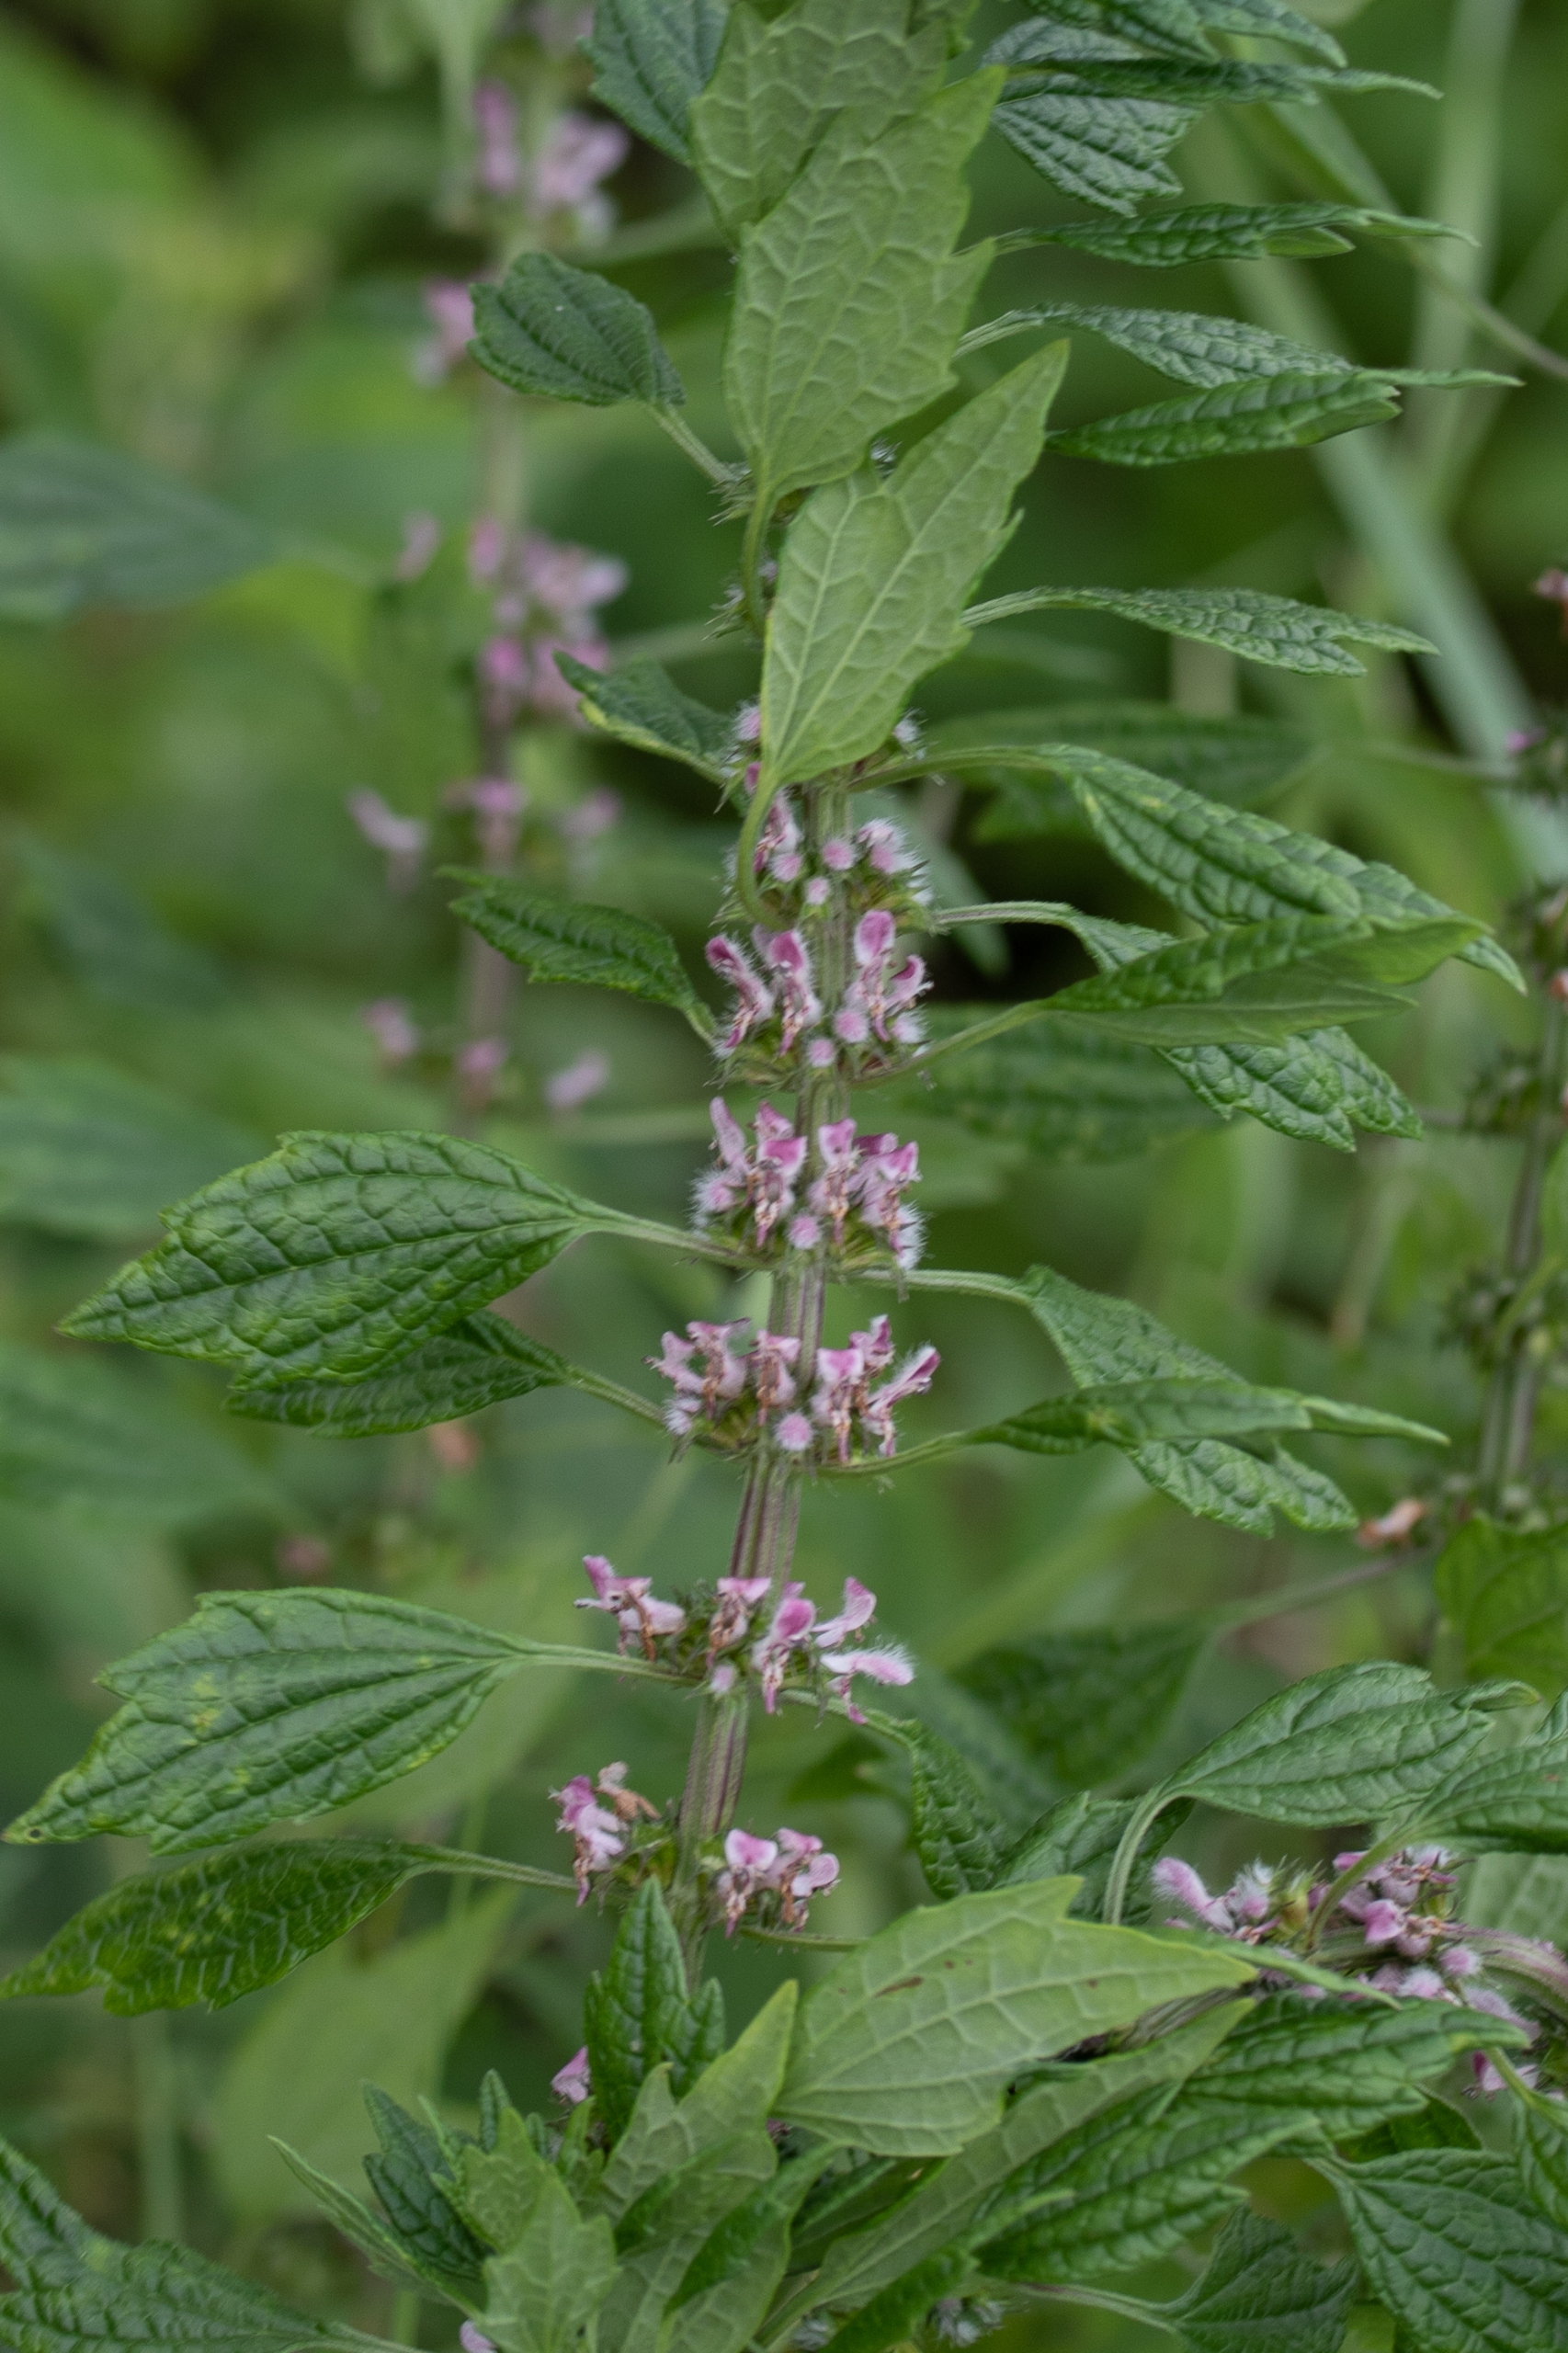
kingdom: Plantae
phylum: Tracheophyta
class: Magnoliopsida
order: Lamiales
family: Lamiaceae
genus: Leonurus
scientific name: Leonurus cardiaca
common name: Hjertespand
